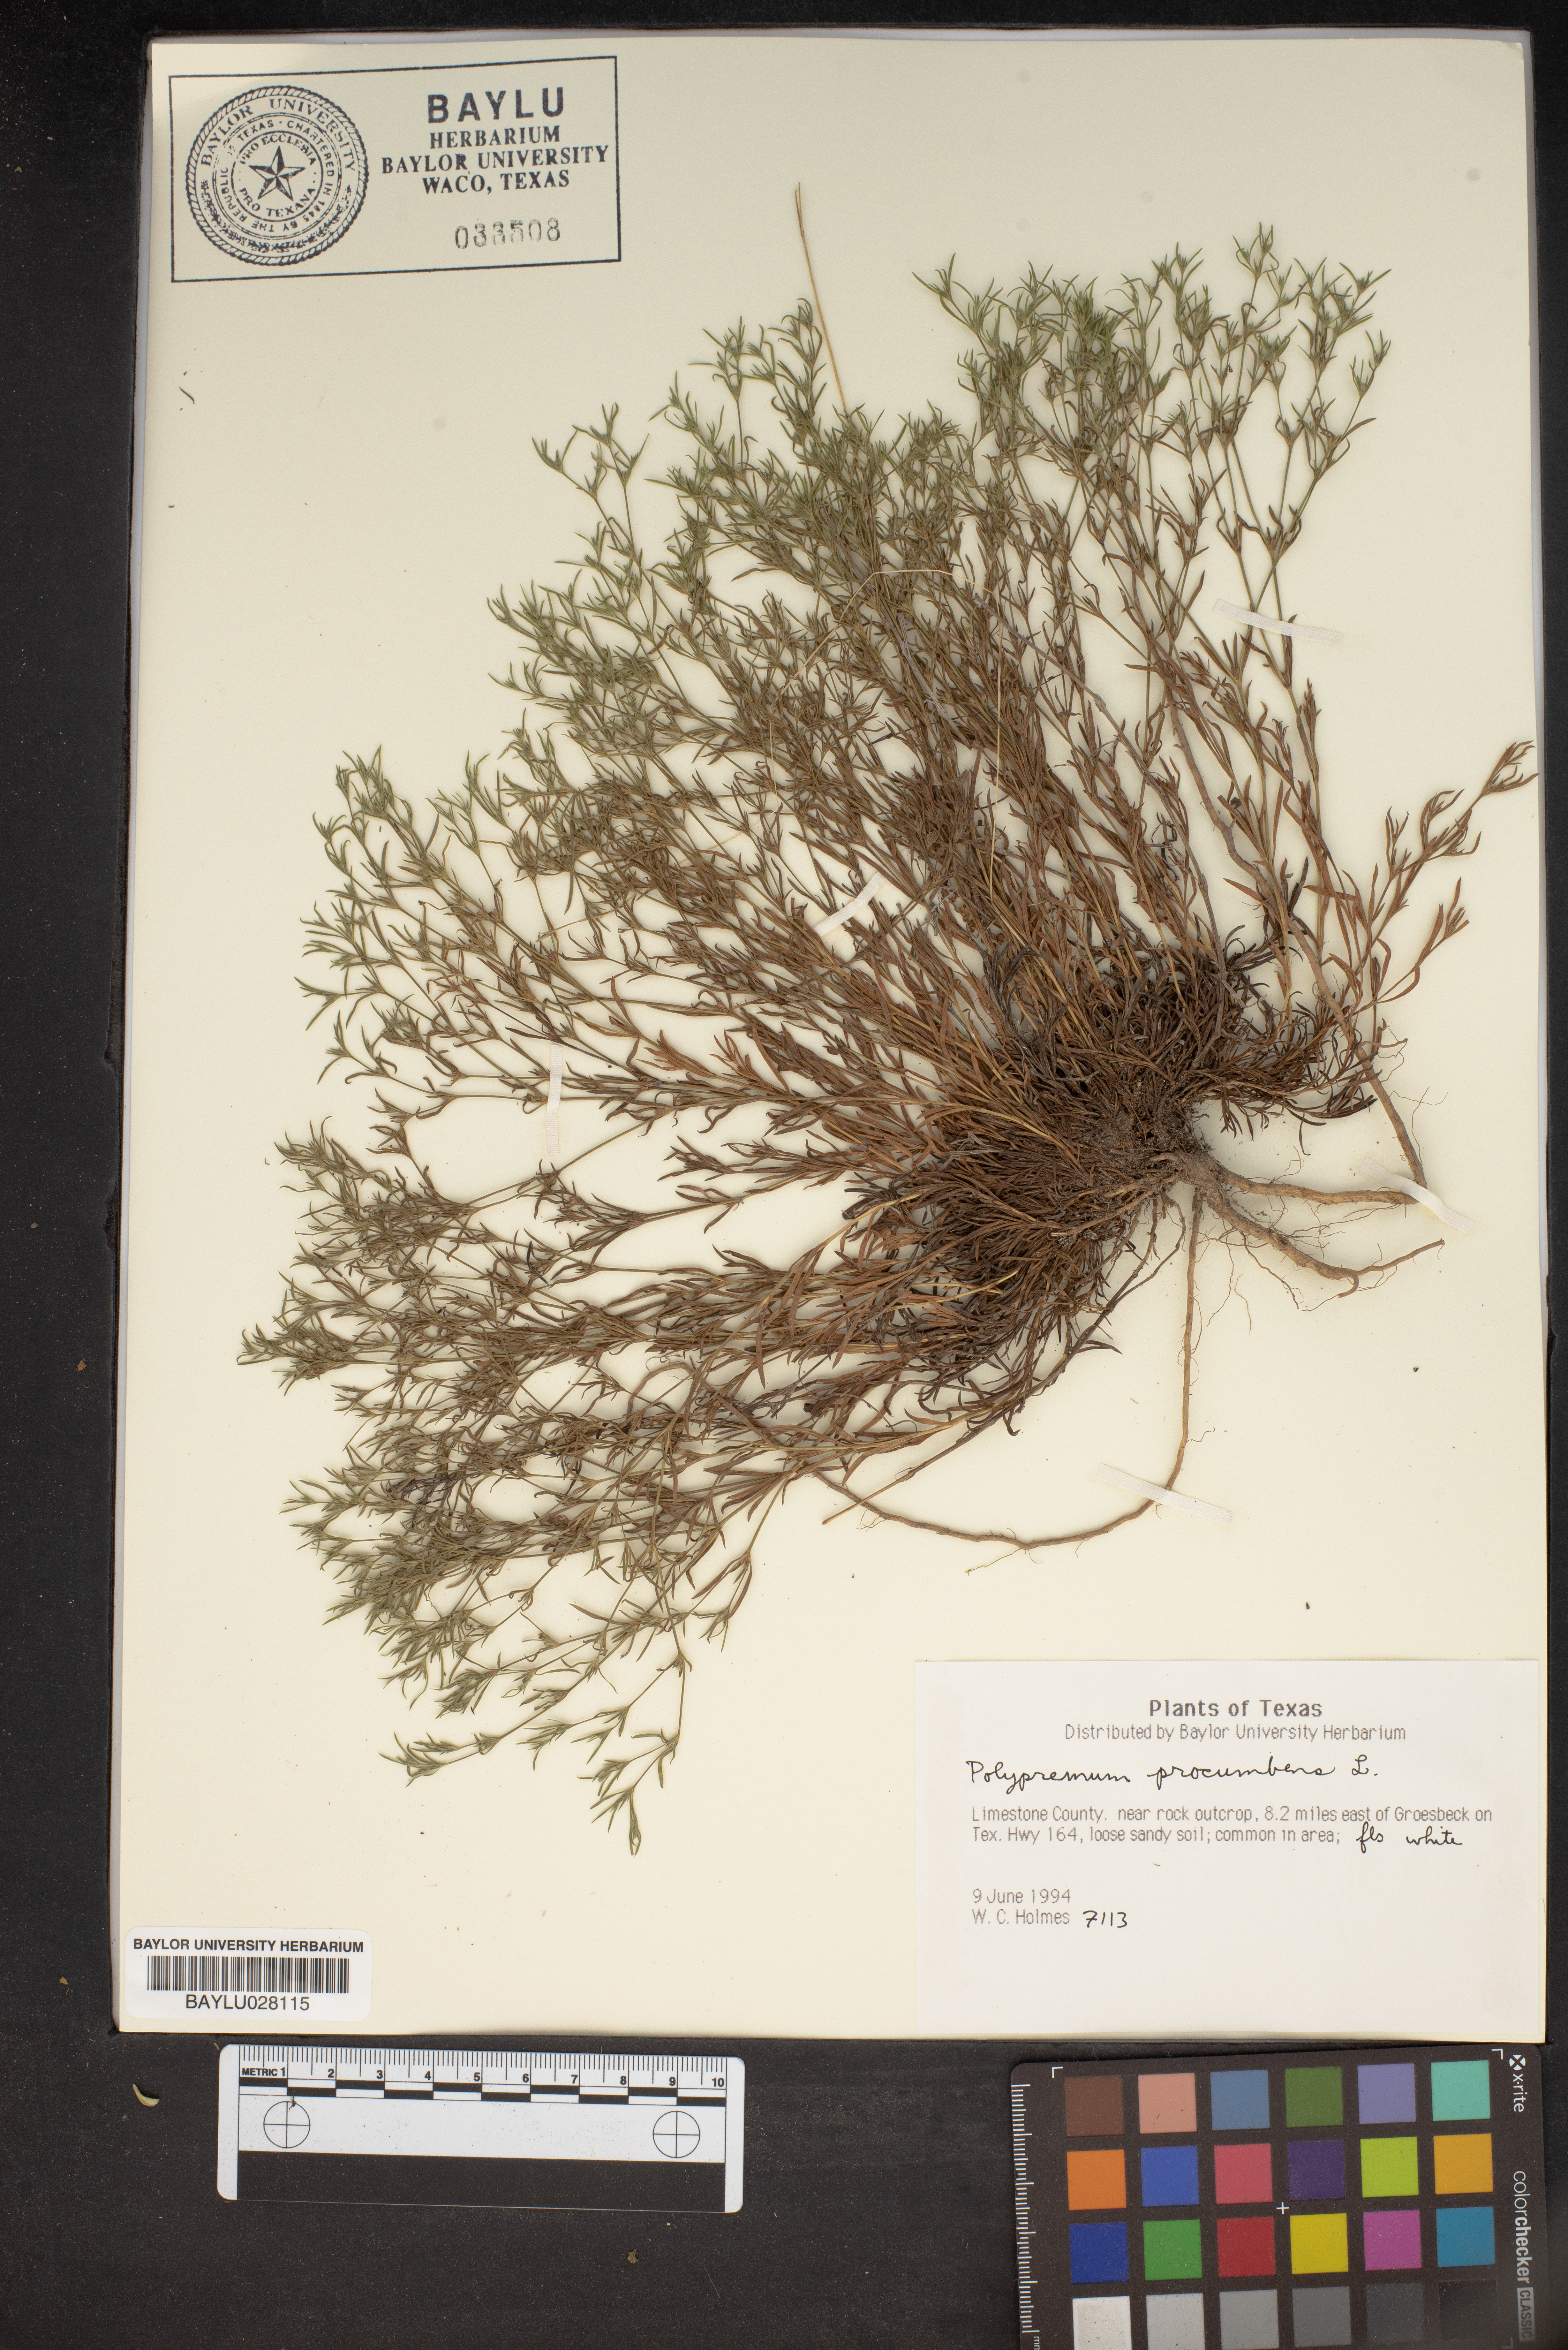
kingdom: Plantae
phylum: Tracheophyta
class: Magnoliopsida
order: Lamiales
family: Tetrachondraceae
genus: Polypremum
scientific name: Polypremum procumbens
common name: Juniper-leaf
